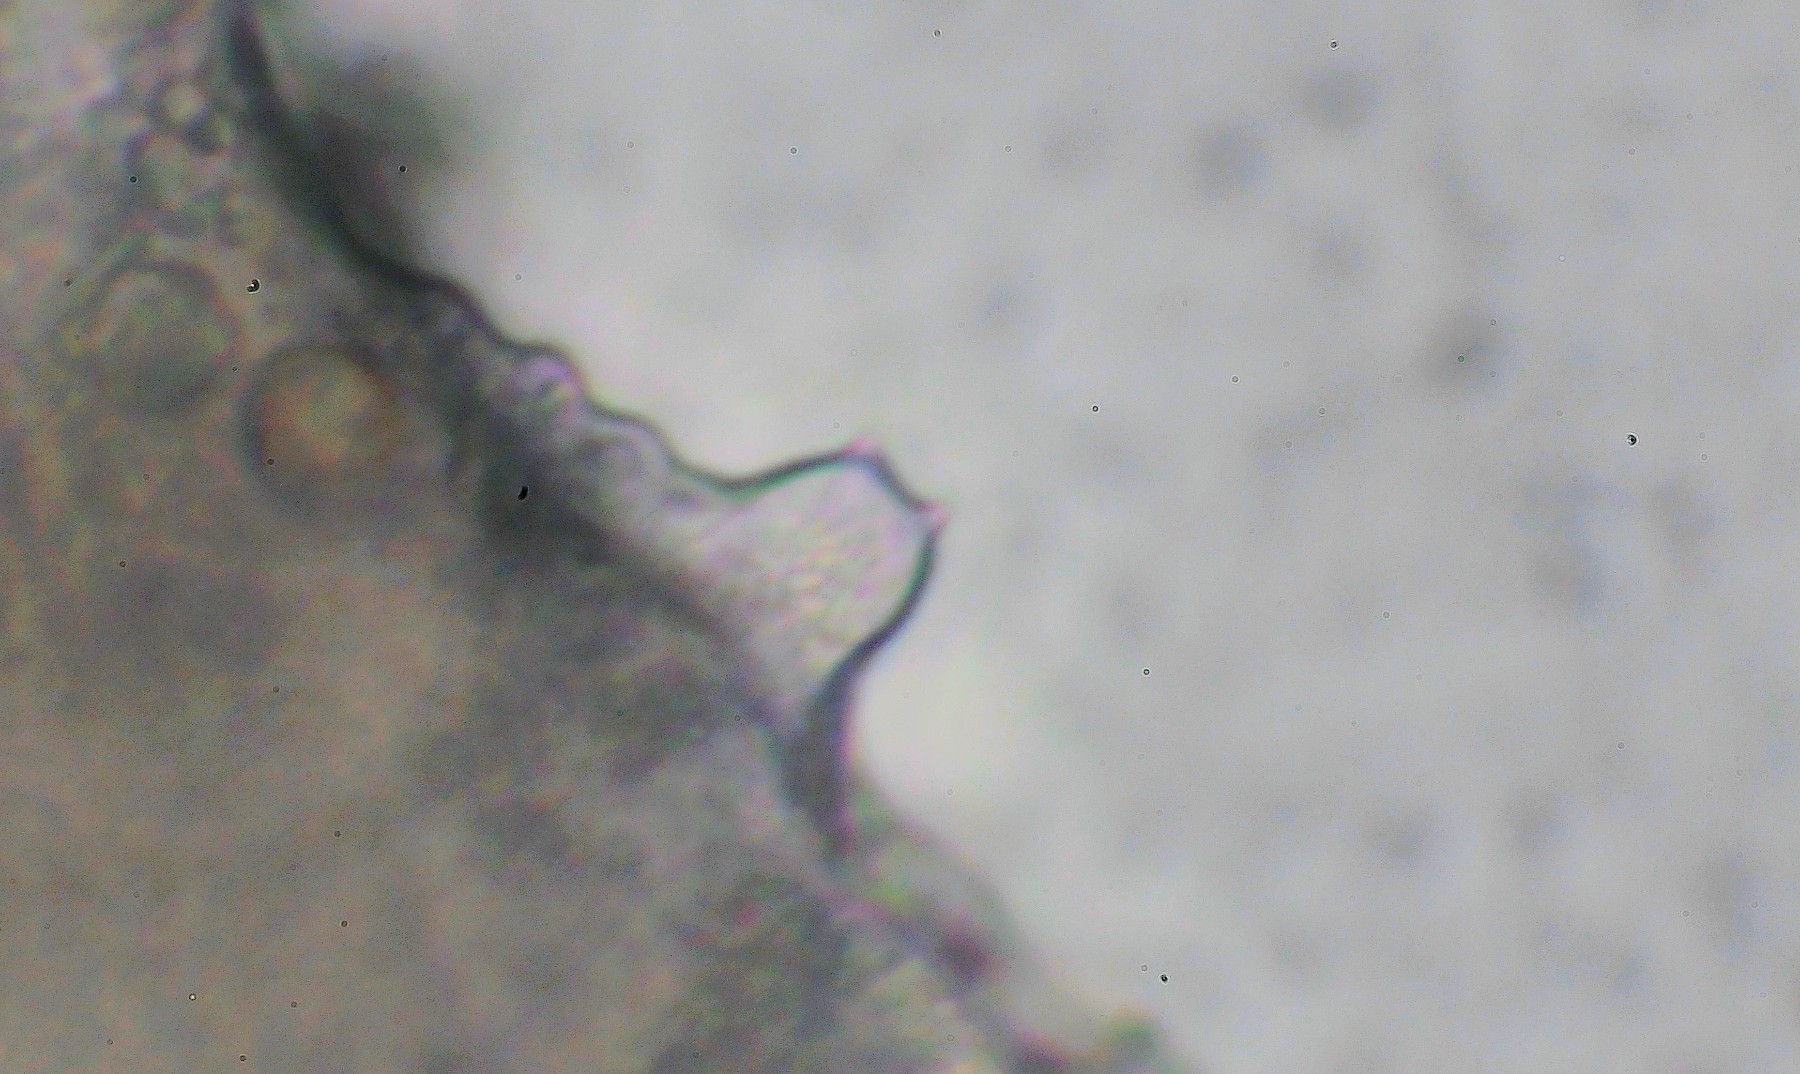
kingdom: Fungi
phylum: Basidiomycota
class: Agaricomycetes
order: Agaricales
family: Entolomataceae
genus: Entoloma
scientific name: Entoloma pseudoturci
